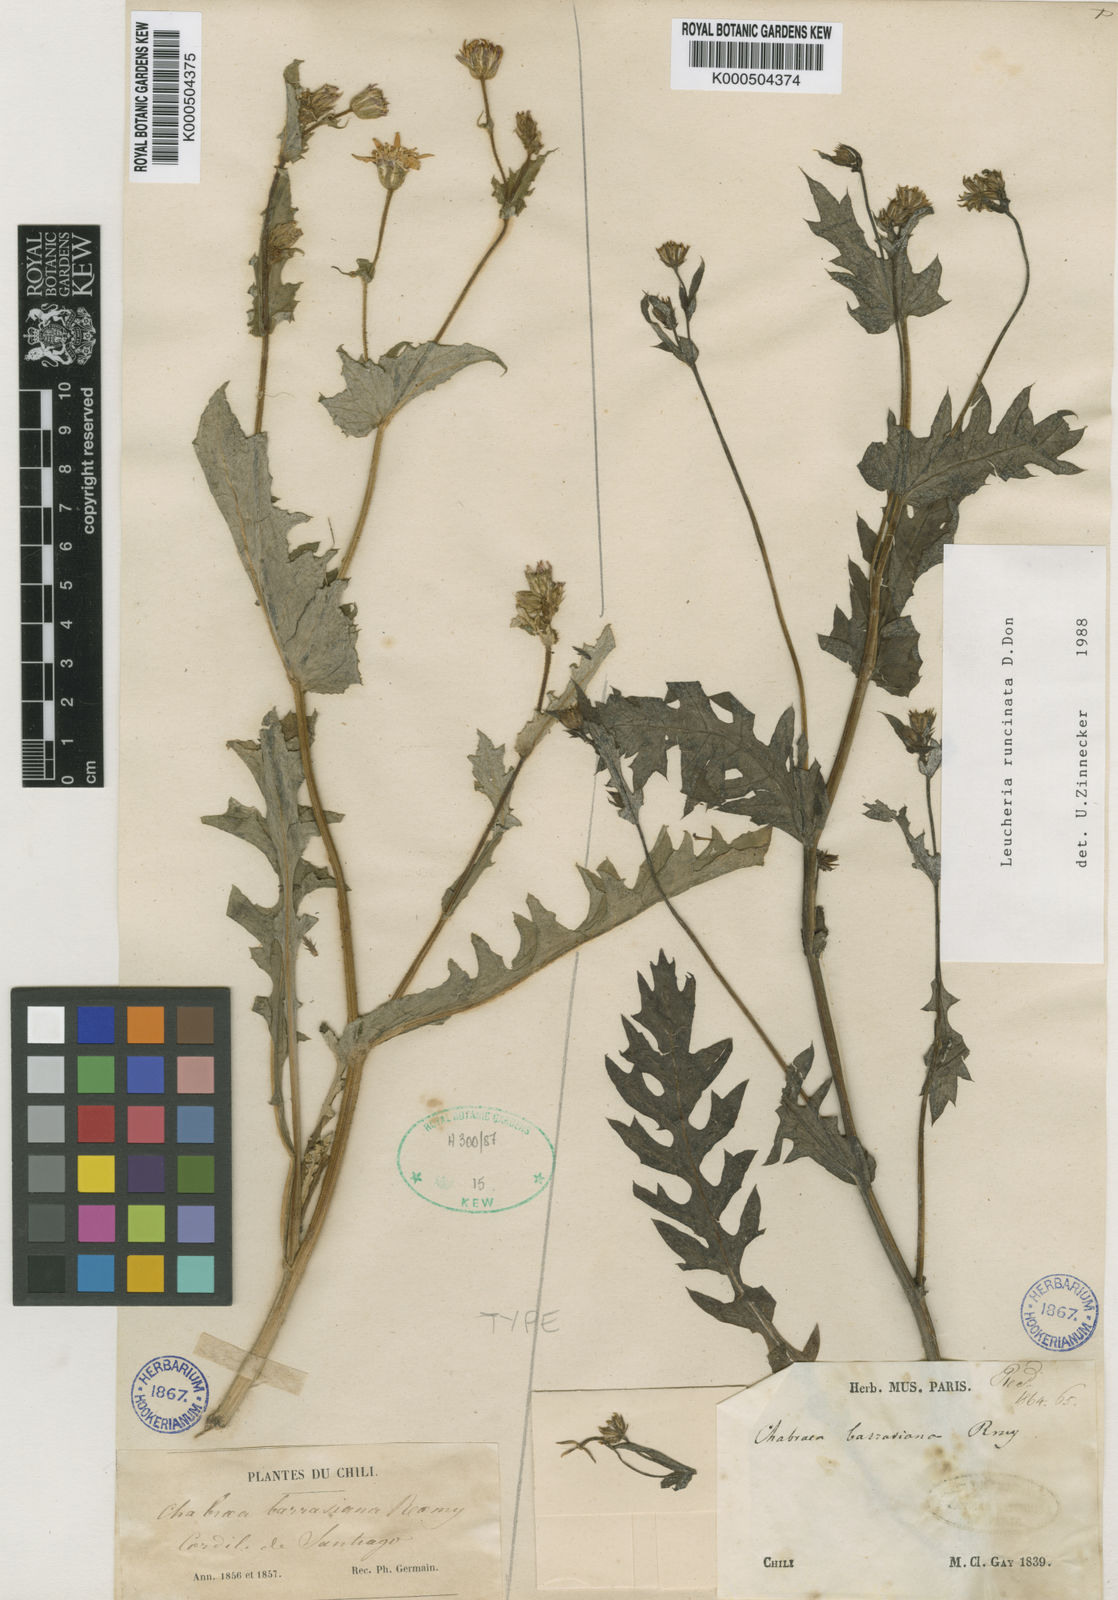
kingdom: Plantae
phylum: Tracheophyta
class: Magnoliopsida
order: Asterales
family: Asteraceae
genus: Leucheria
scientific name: Leucheria runcinata
